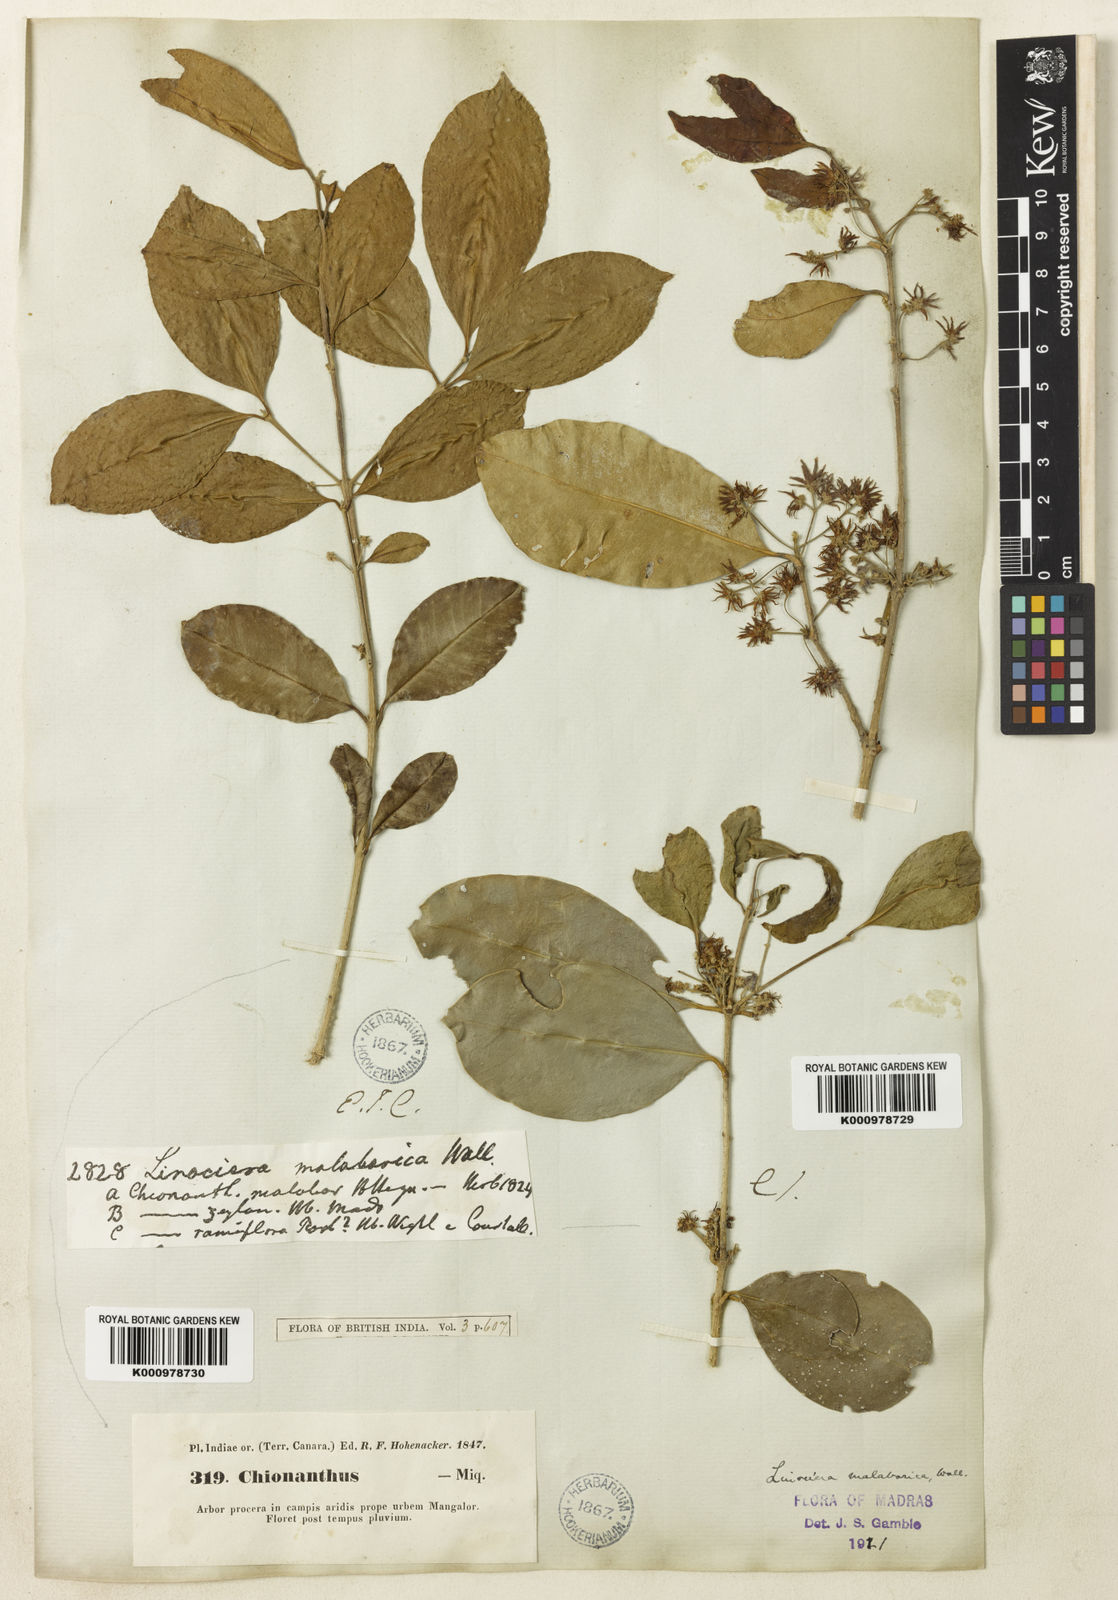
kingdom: Plantae
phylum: Tracheophyta
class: Magnoliopsida
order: Lamiales
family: Oleaceae
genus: Chionanthus
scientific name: Chionanthus mala-elengi
